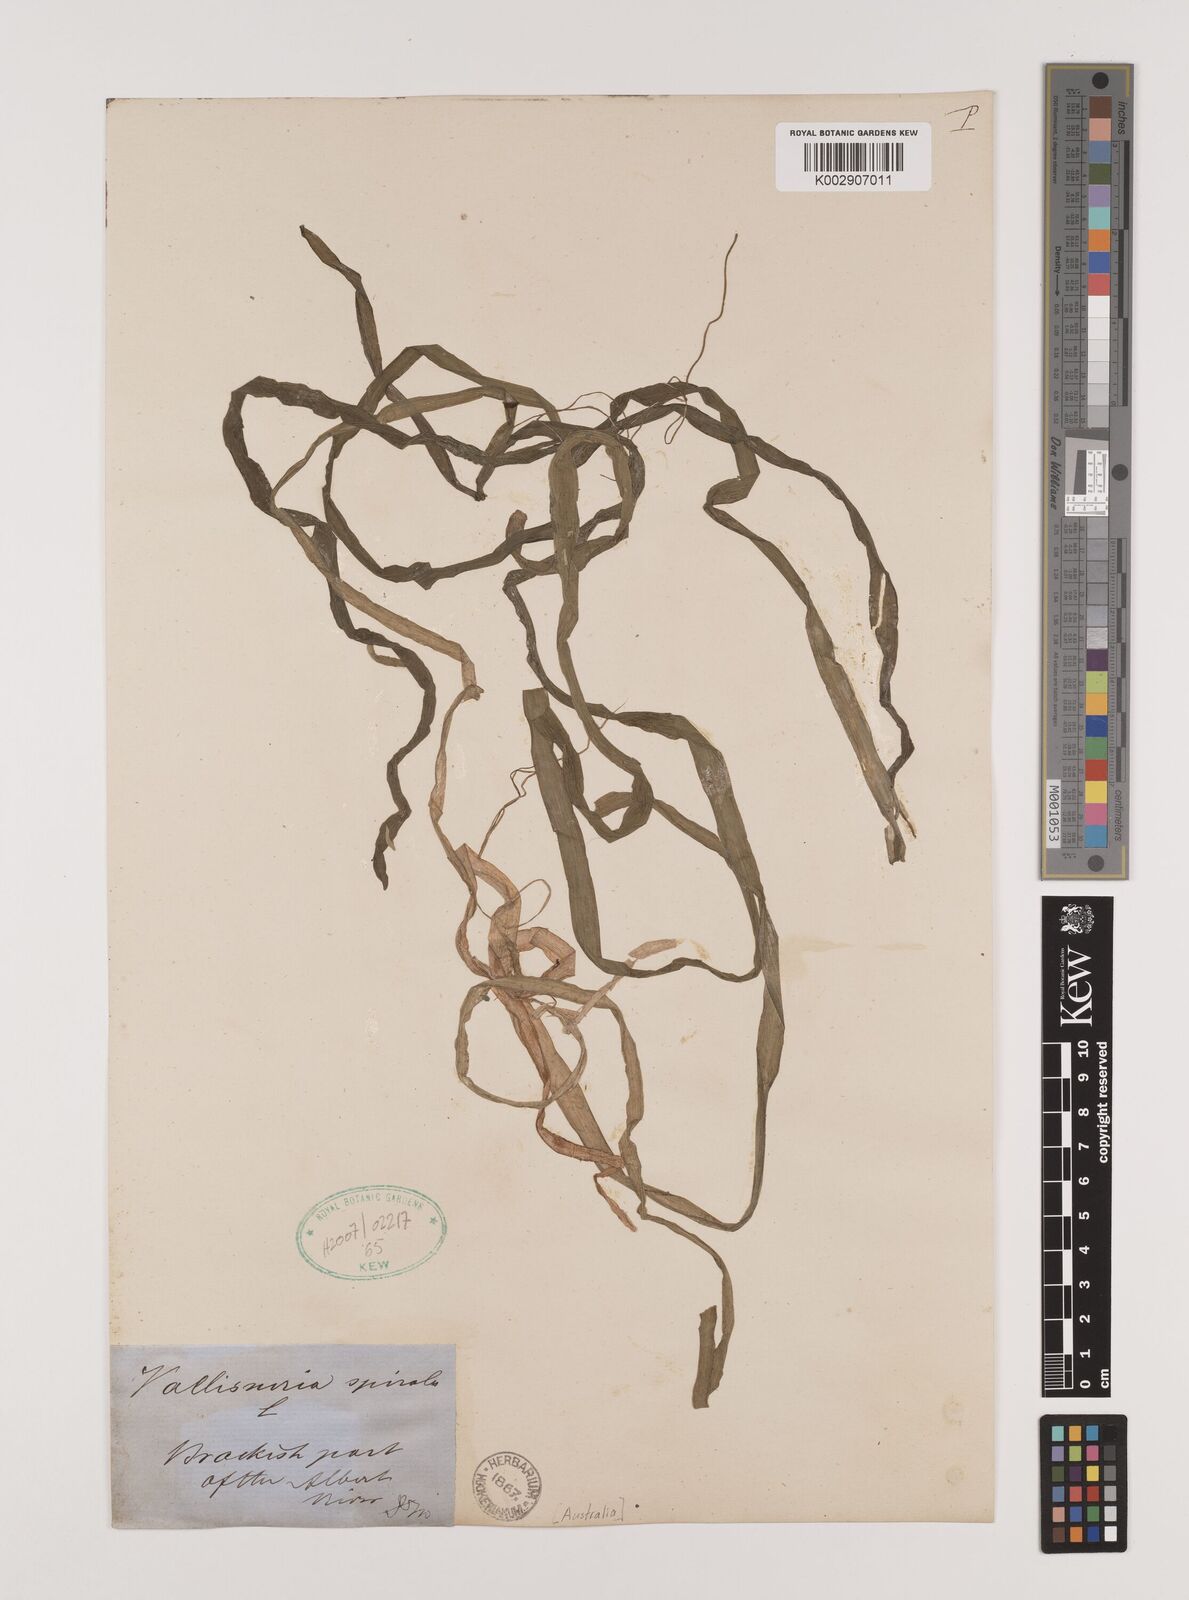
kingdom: Plantae
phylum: Tracheophyta
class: Liliopsida
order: Alismatales
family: Hydrocharitaceae
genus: Vallisneria
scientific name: Vallisneria spiralis
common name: Tapegrass
